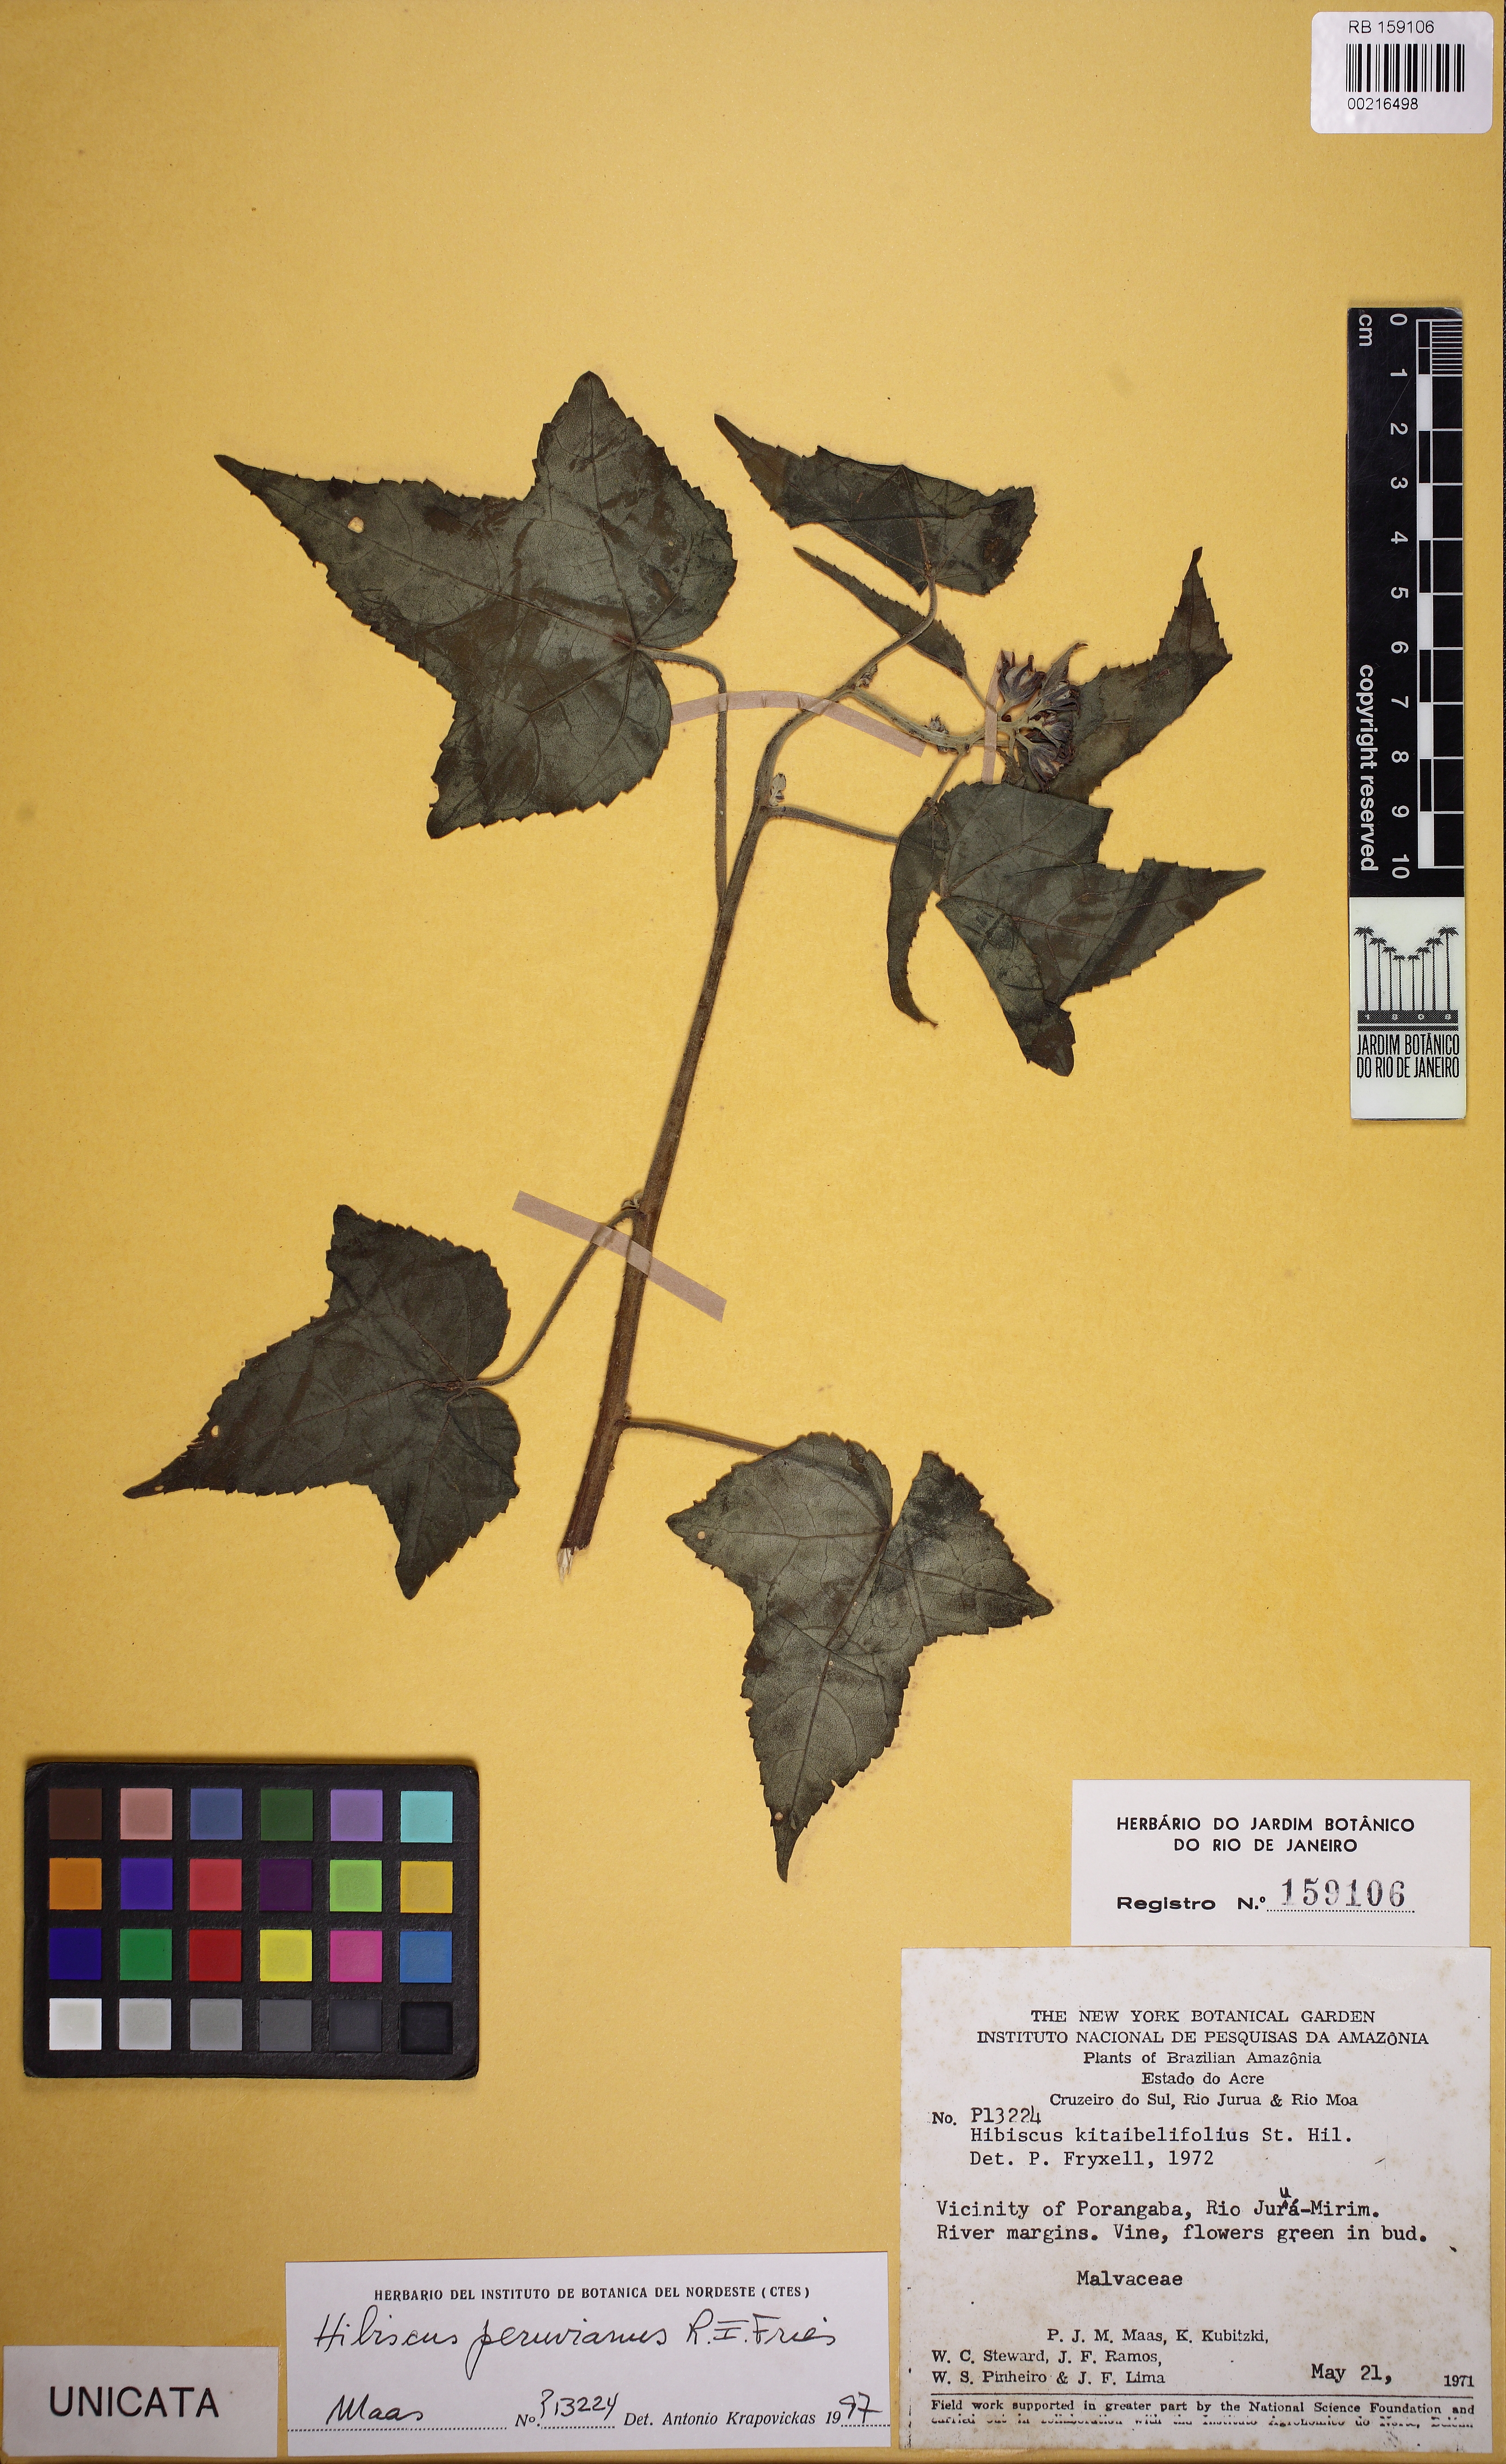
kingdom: Plantae
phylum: Tracheophyta
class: Magnoliopsida
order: Malvales
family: Malvaceae
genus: Hibiscus
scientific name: Hibiscus peruvianus
